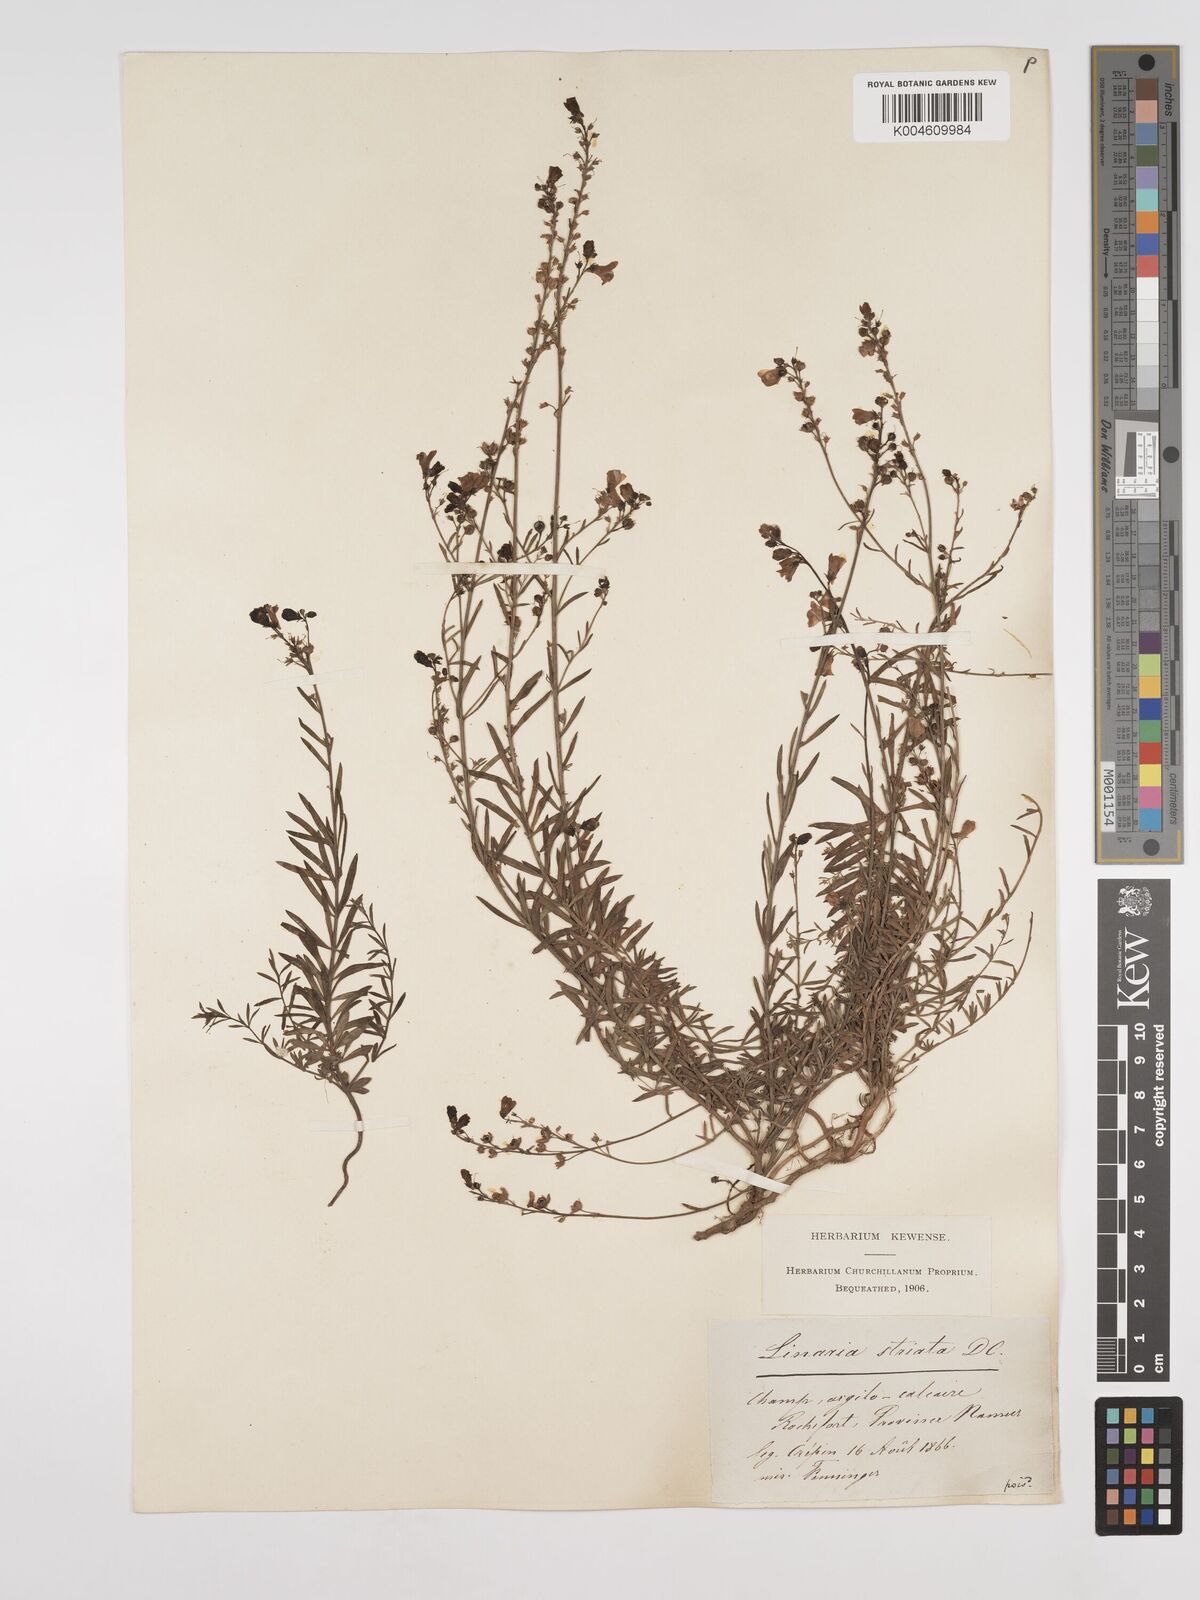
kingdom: Plantae
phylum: Tracheophyta
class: Magnoliopsida
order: Lamiales
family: Plantaginaceae
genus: Linaria
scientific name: Linaria
